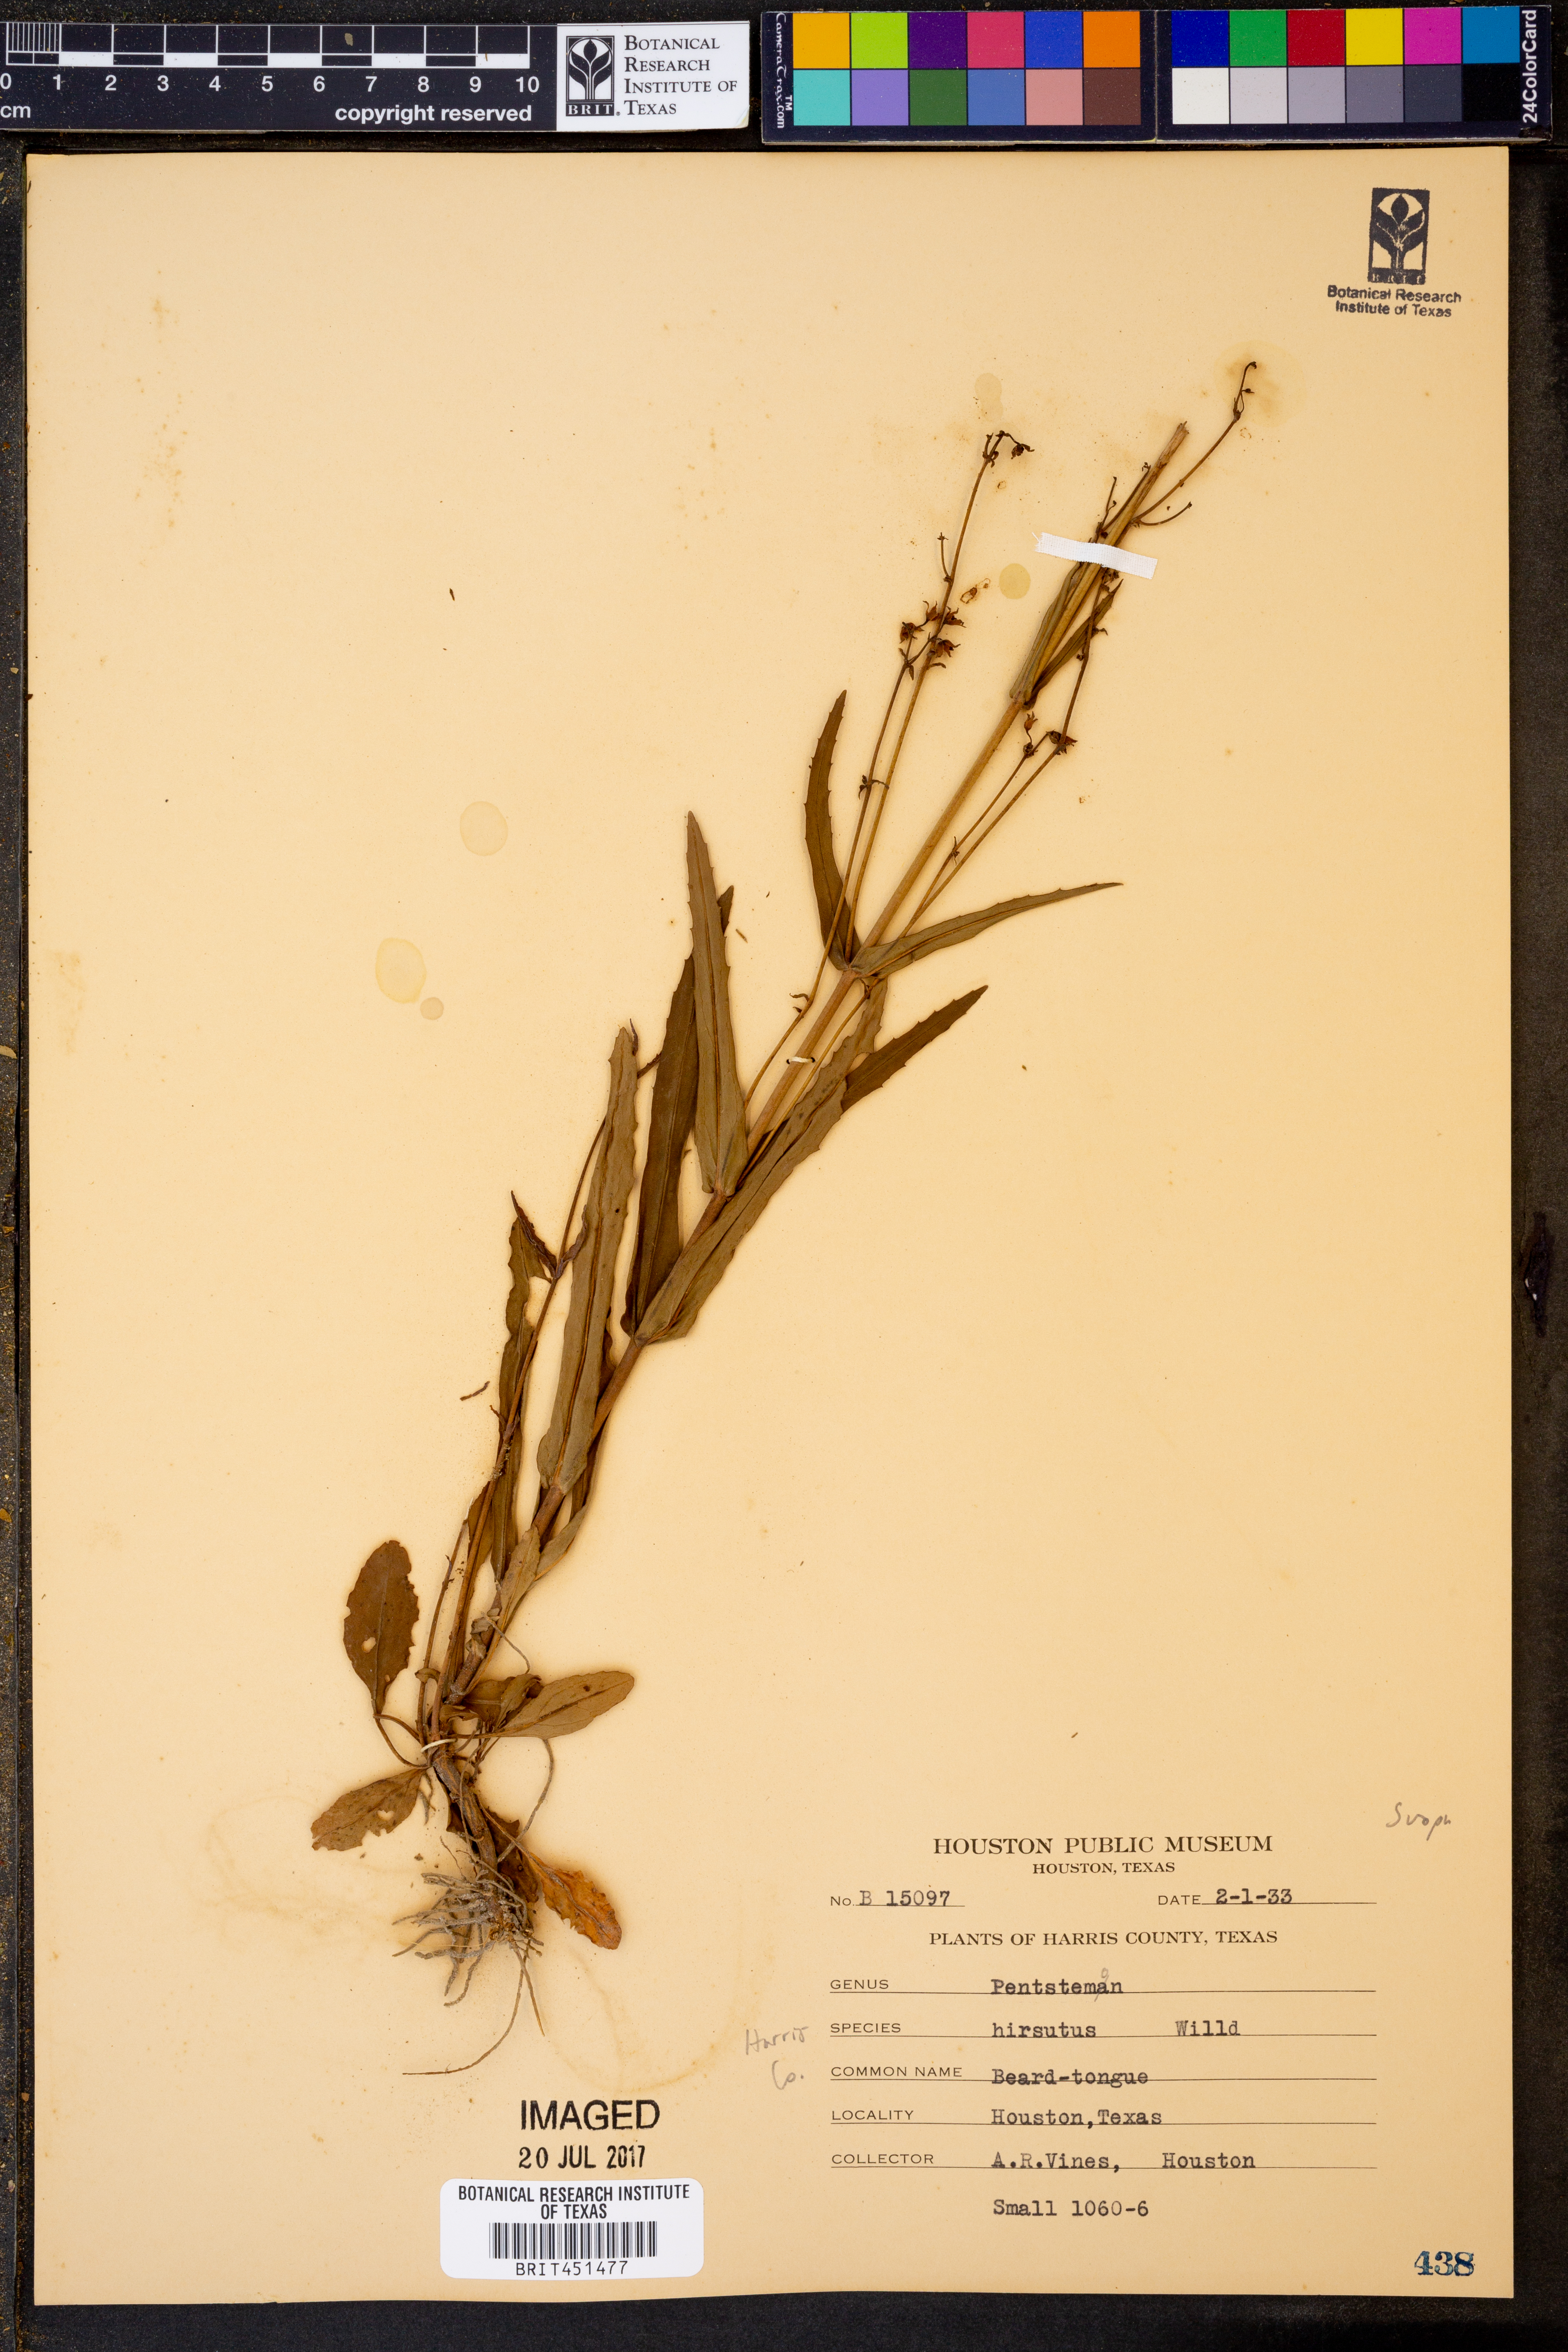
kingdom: Plantae
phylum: Tracheophyta
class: Magnoliopsida
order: Lamiales
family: Plantaginaceae
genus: Penstemon
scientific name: Penstemon hirsutus
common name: Hairy beardtongue
